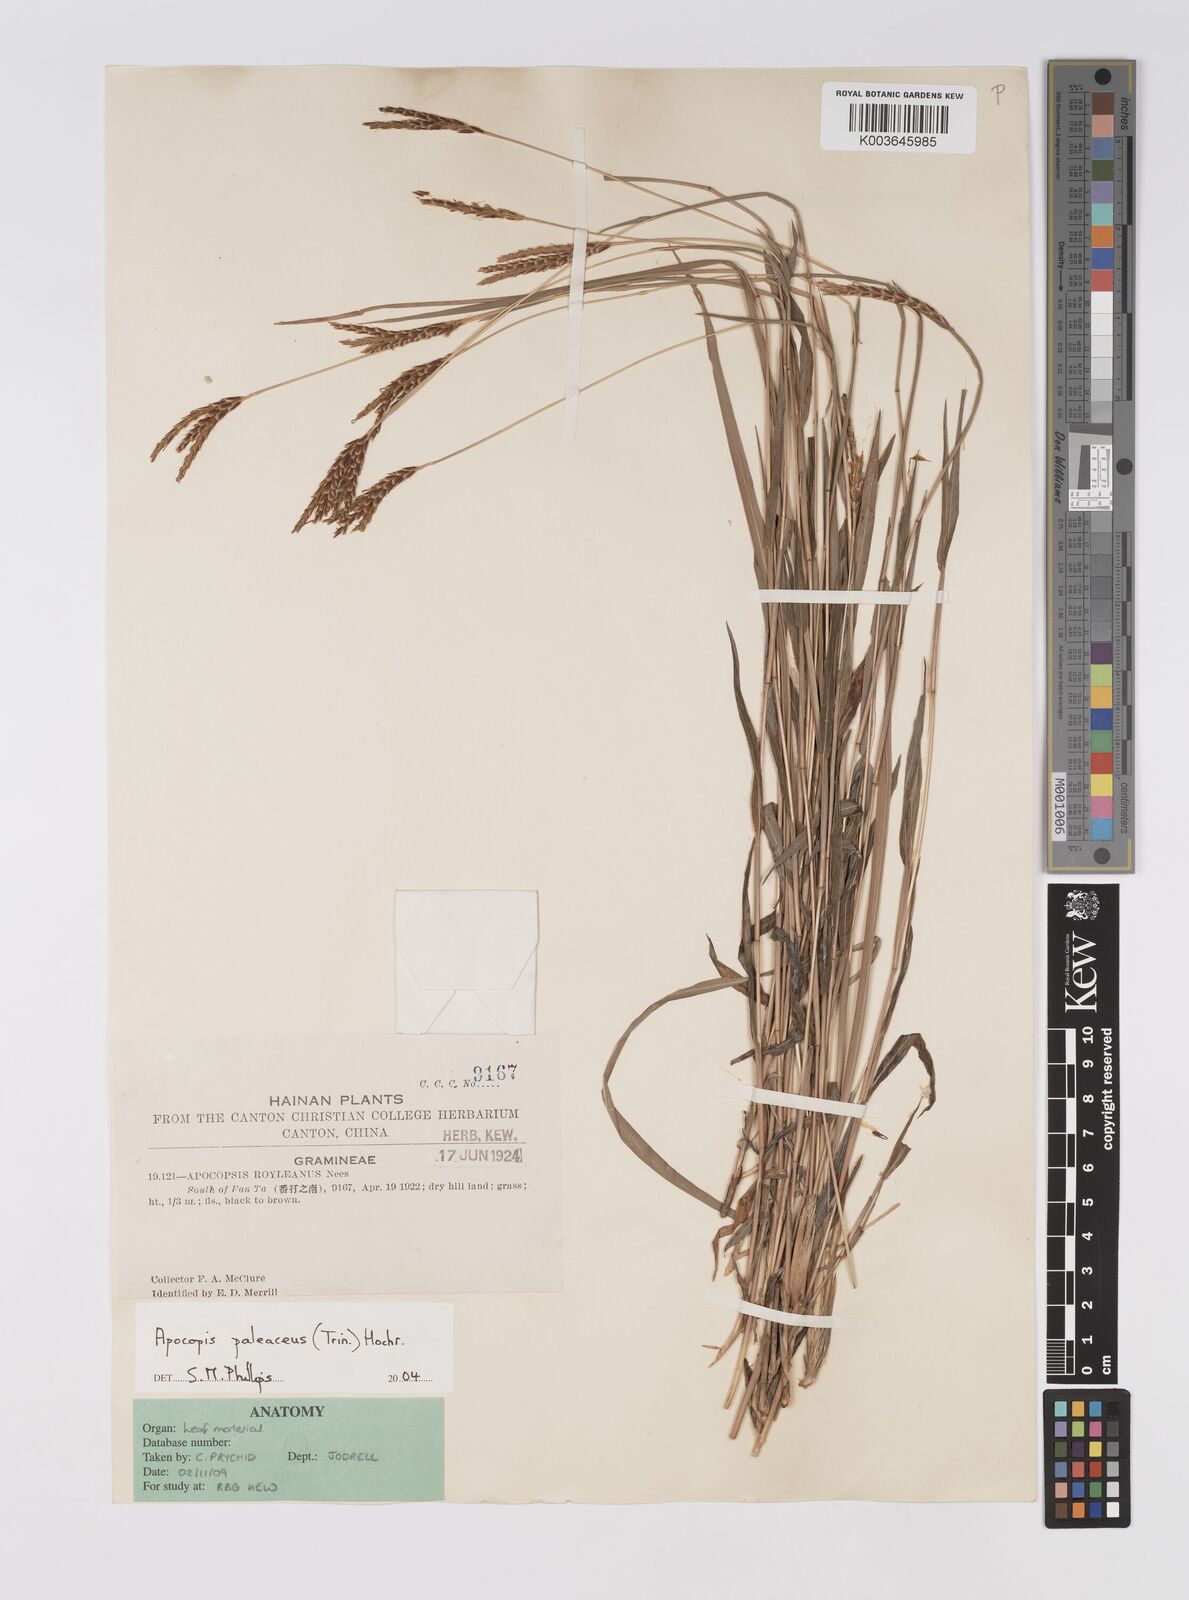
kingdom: Plantae
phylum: Tracheophyta
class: Liliopsida
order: Poales
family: Poaceae
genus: Apocopis
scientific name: Apocopis paleaceus
